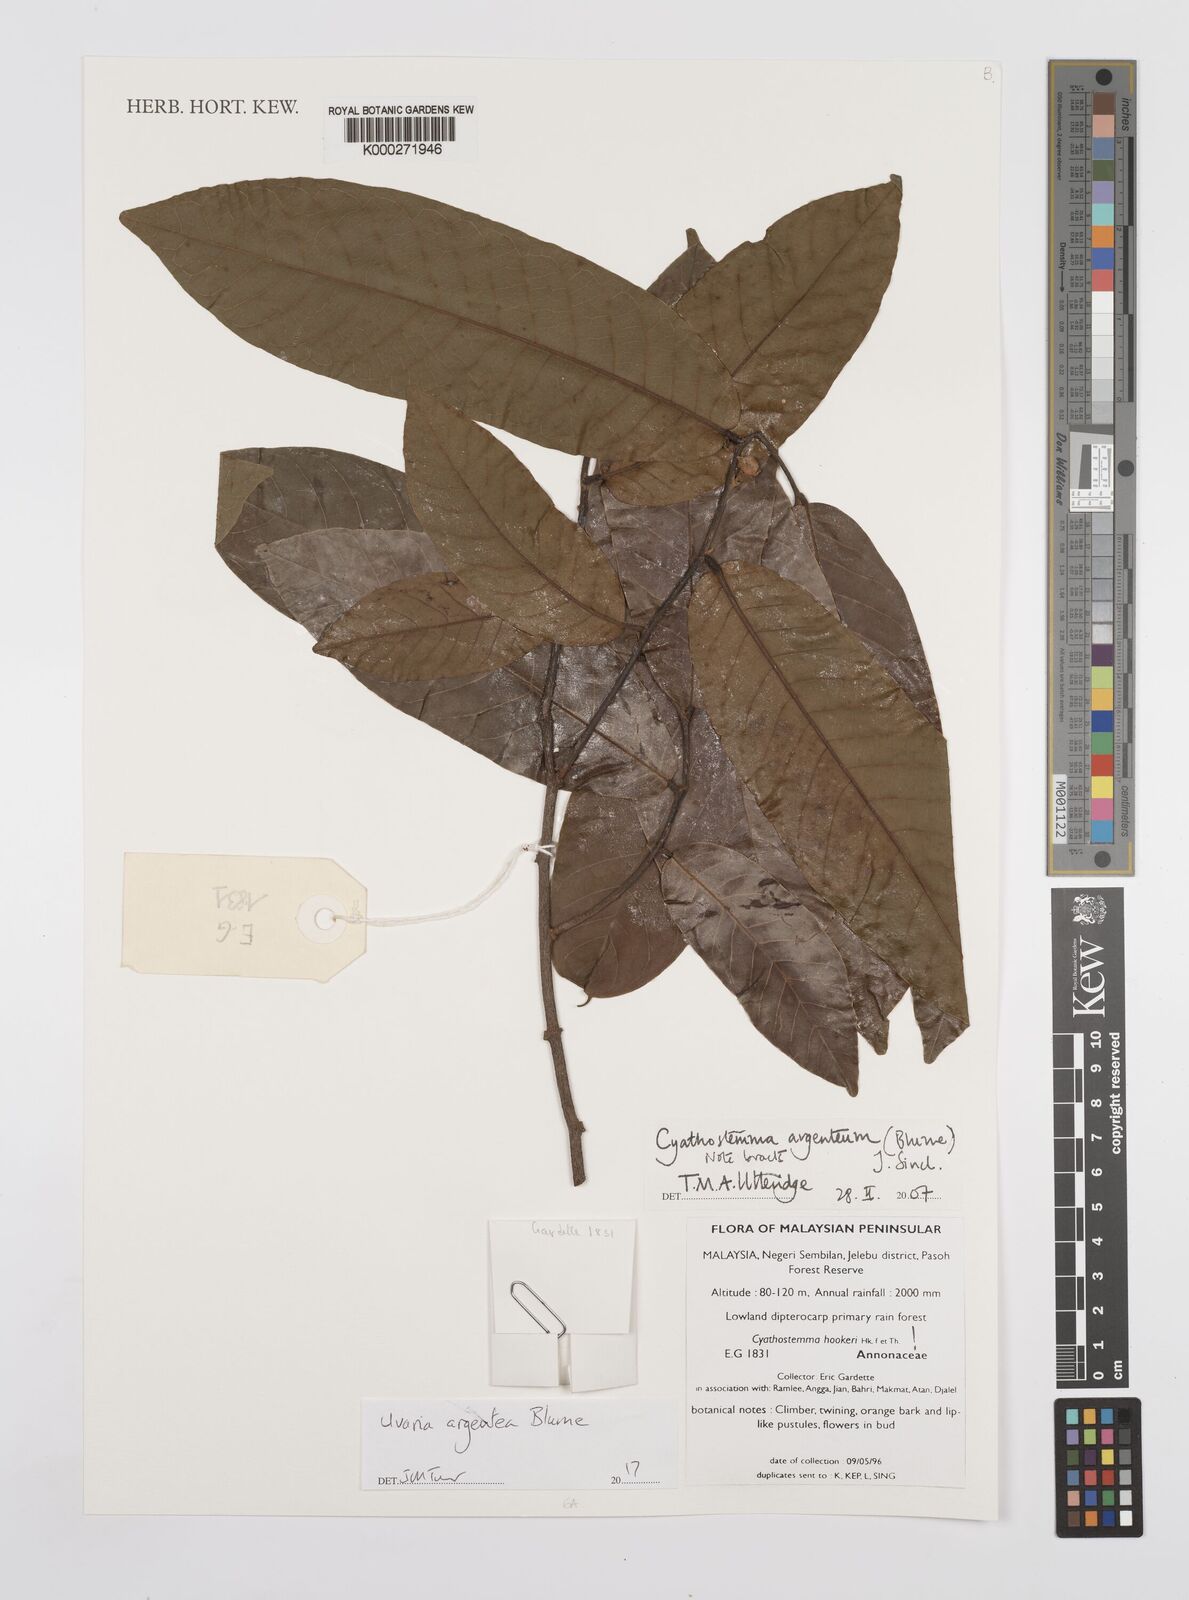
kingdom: Plantae
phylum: Tracheophyta
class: Magnoliopsida
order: Magnoliales
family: Annonaceae
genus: Uvaria
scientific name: Uvaria argentea
